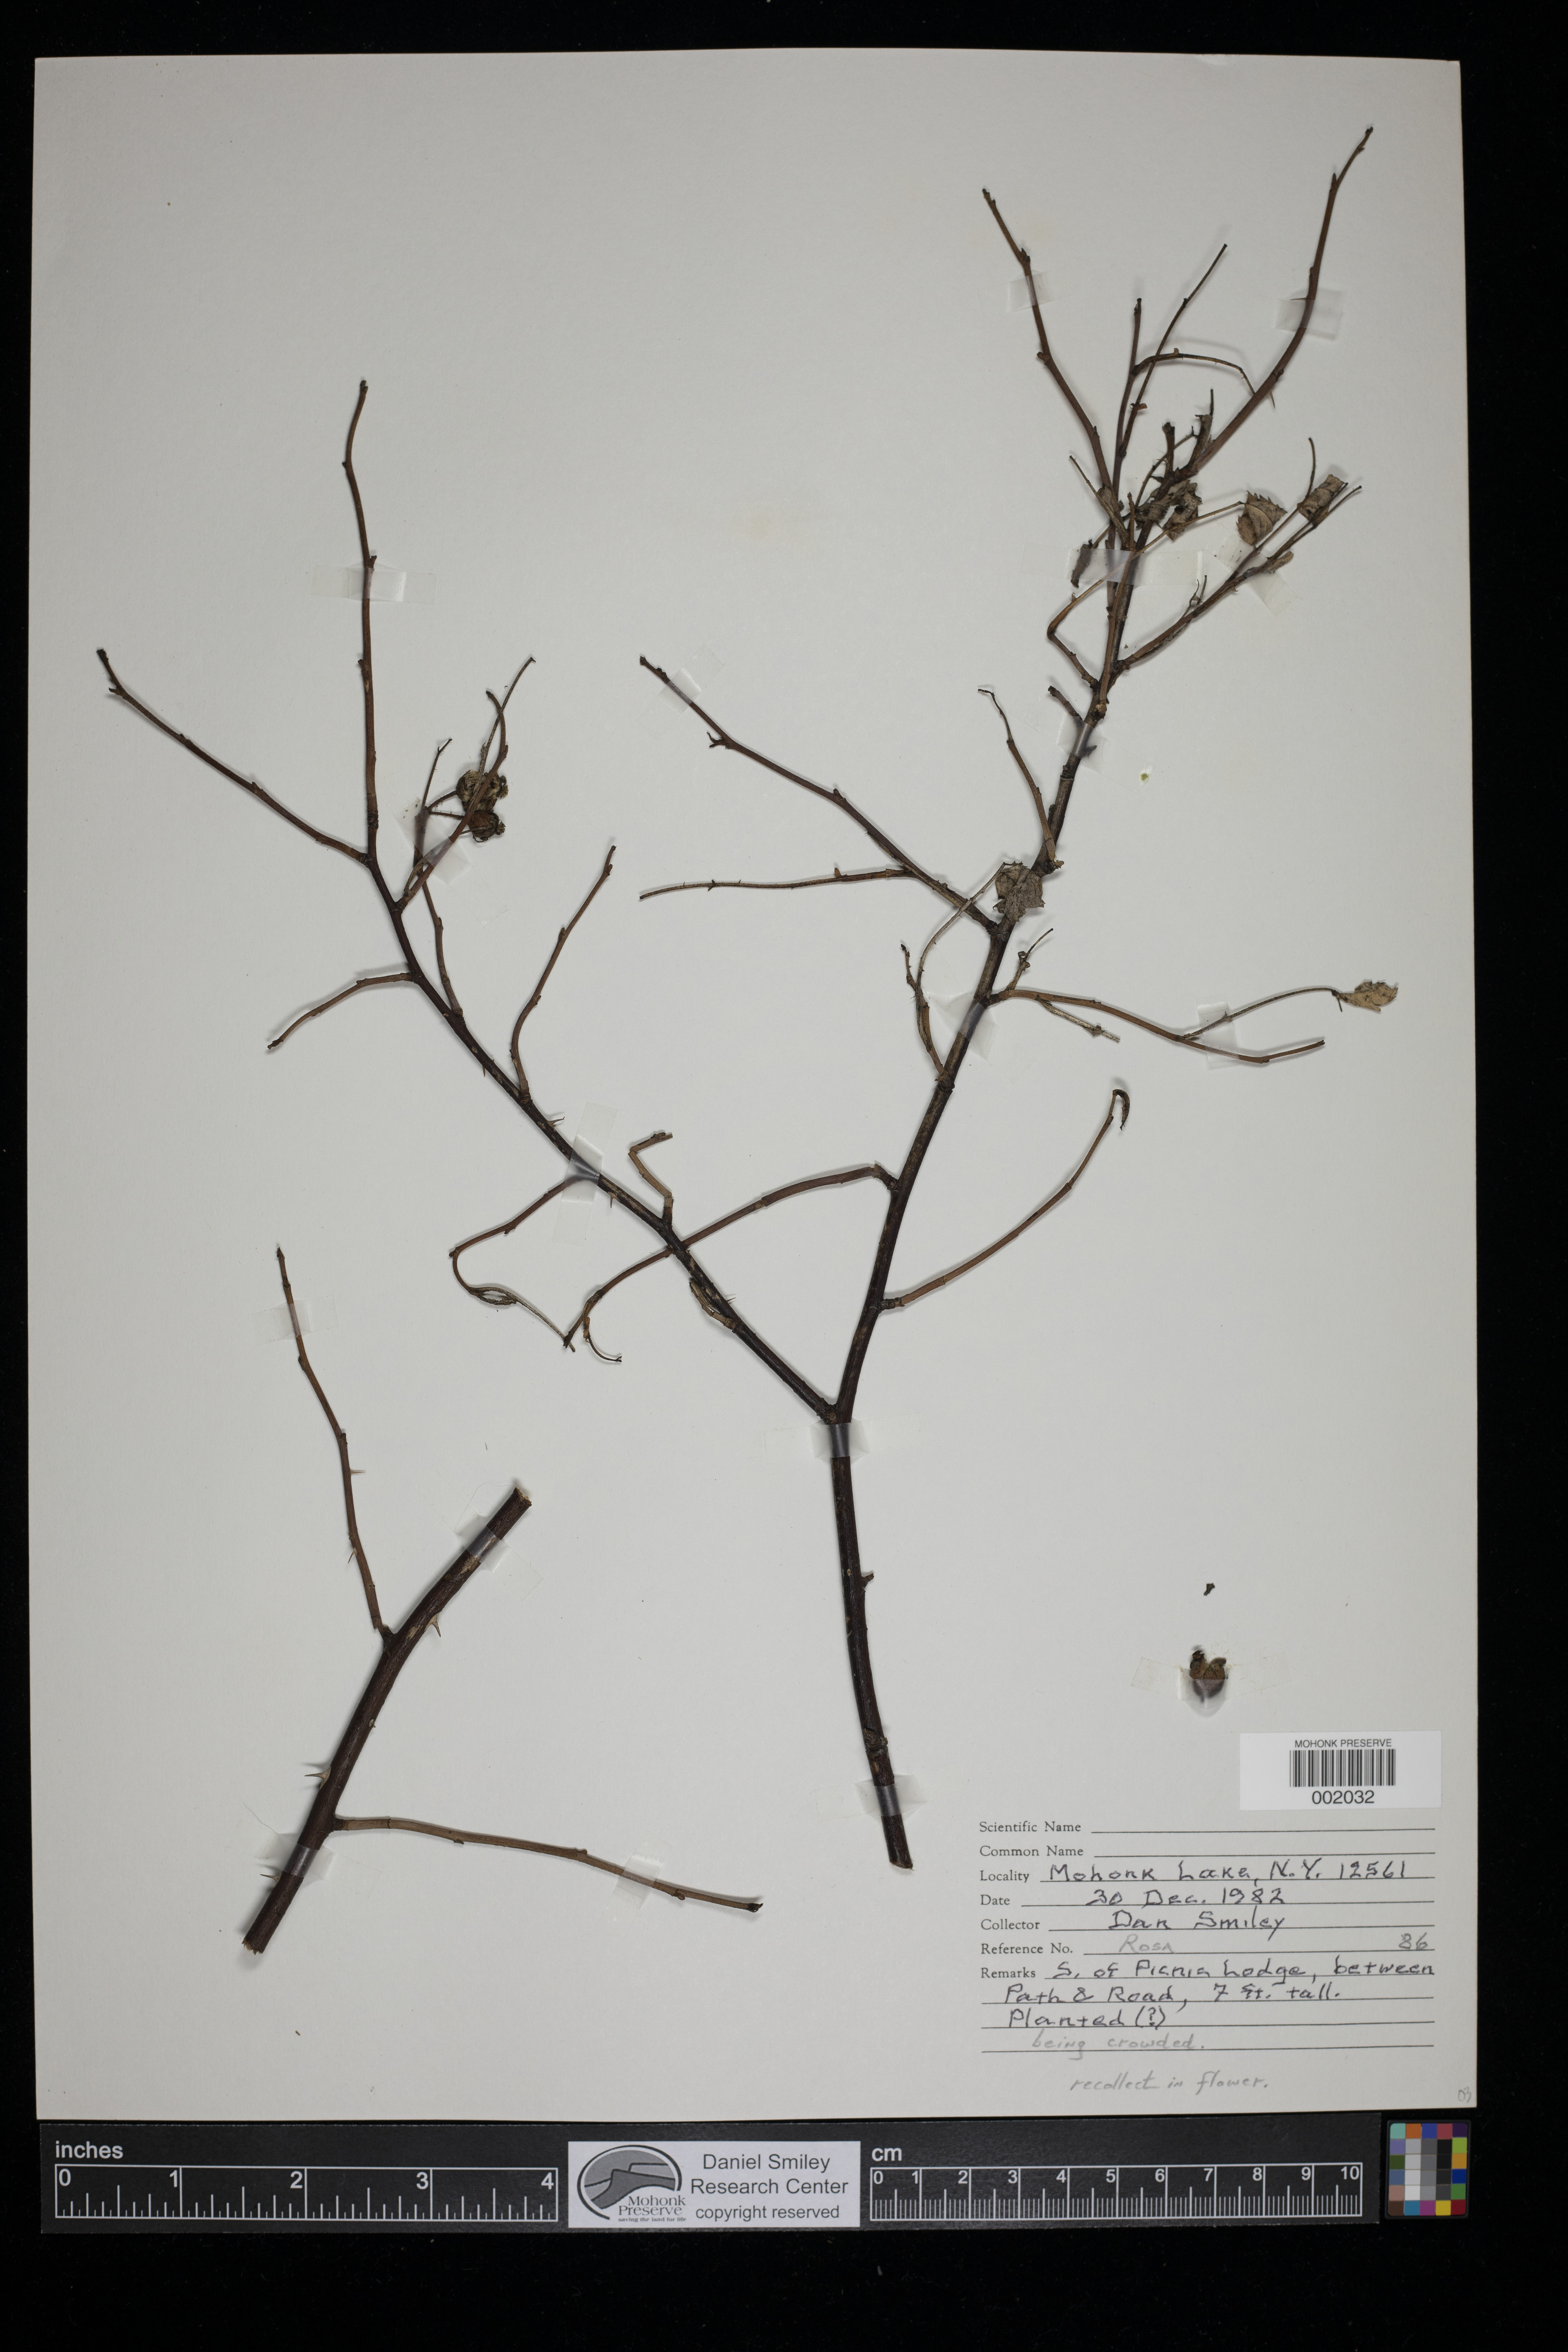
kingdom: Plantae
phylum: Tracheophyta
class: Magnoliopsida
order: Rosales
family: Rosaceae
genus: Rosa
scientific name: Rosa
